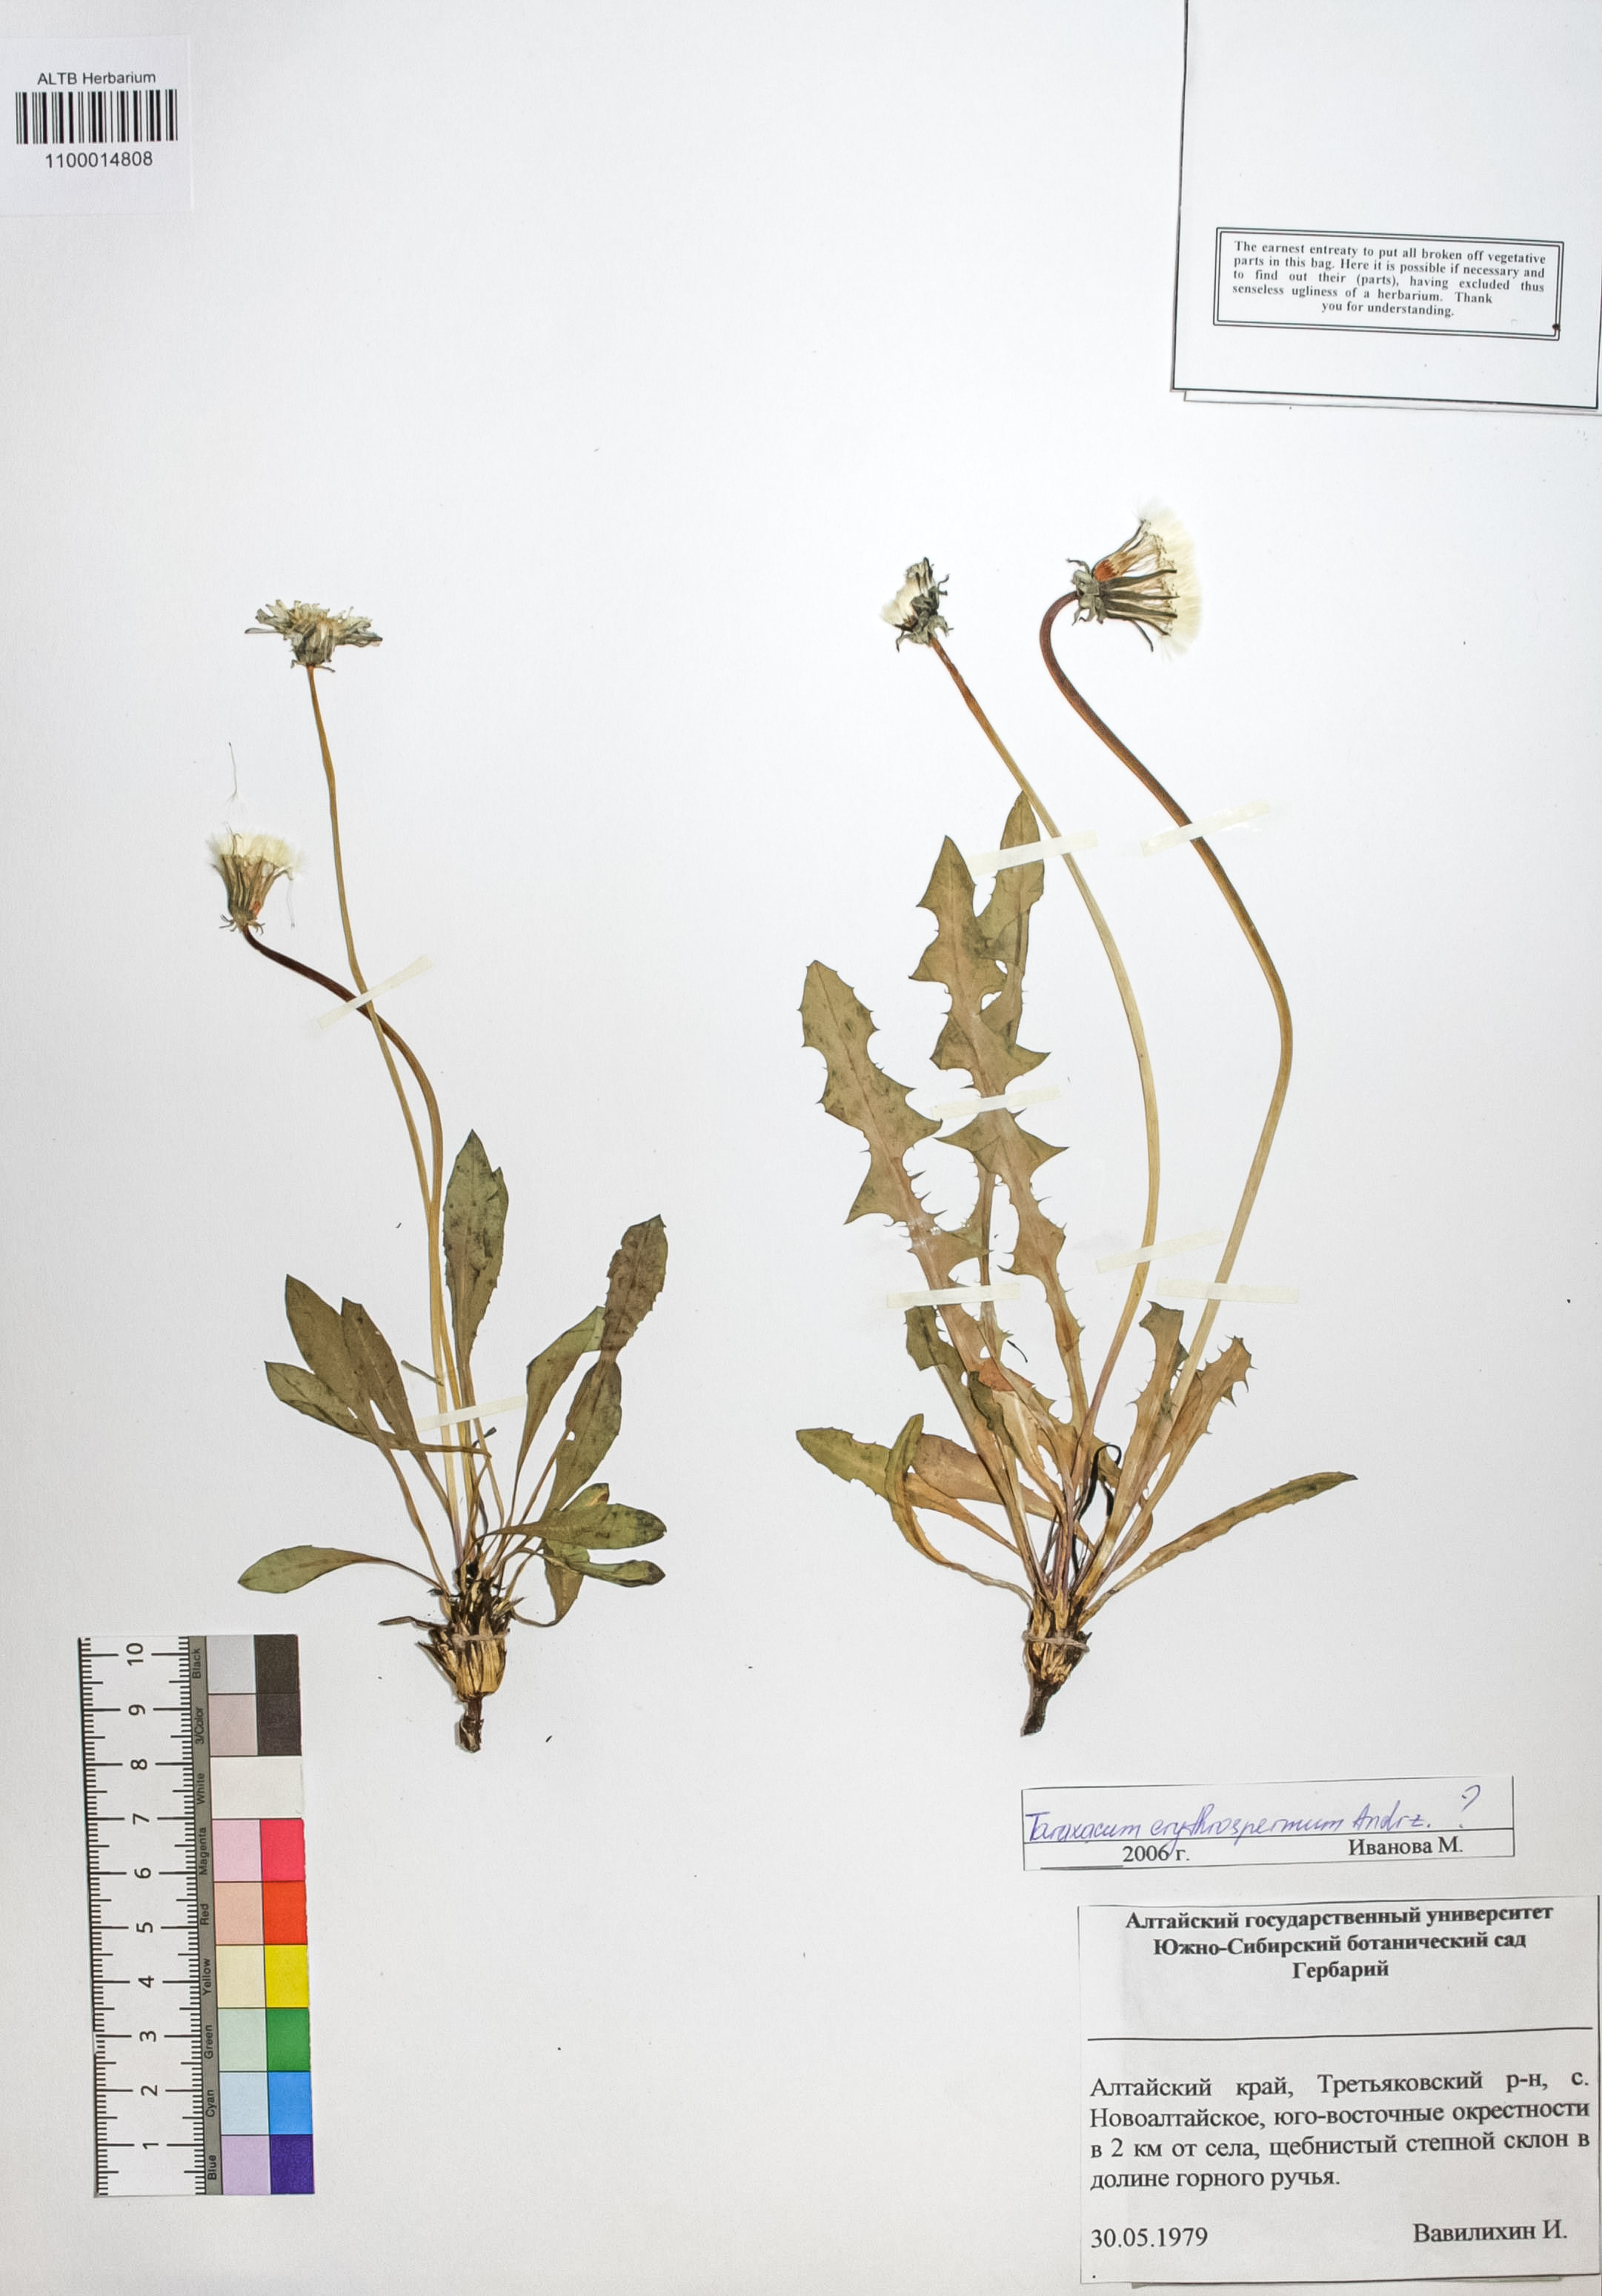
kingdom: Plantae
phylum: Tracheophyta
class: Magnoliopsida
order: Asterales
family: Asteraceae
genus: Taraxacum
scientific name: Taraxacum erythrospermum
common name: Rock dandelion
